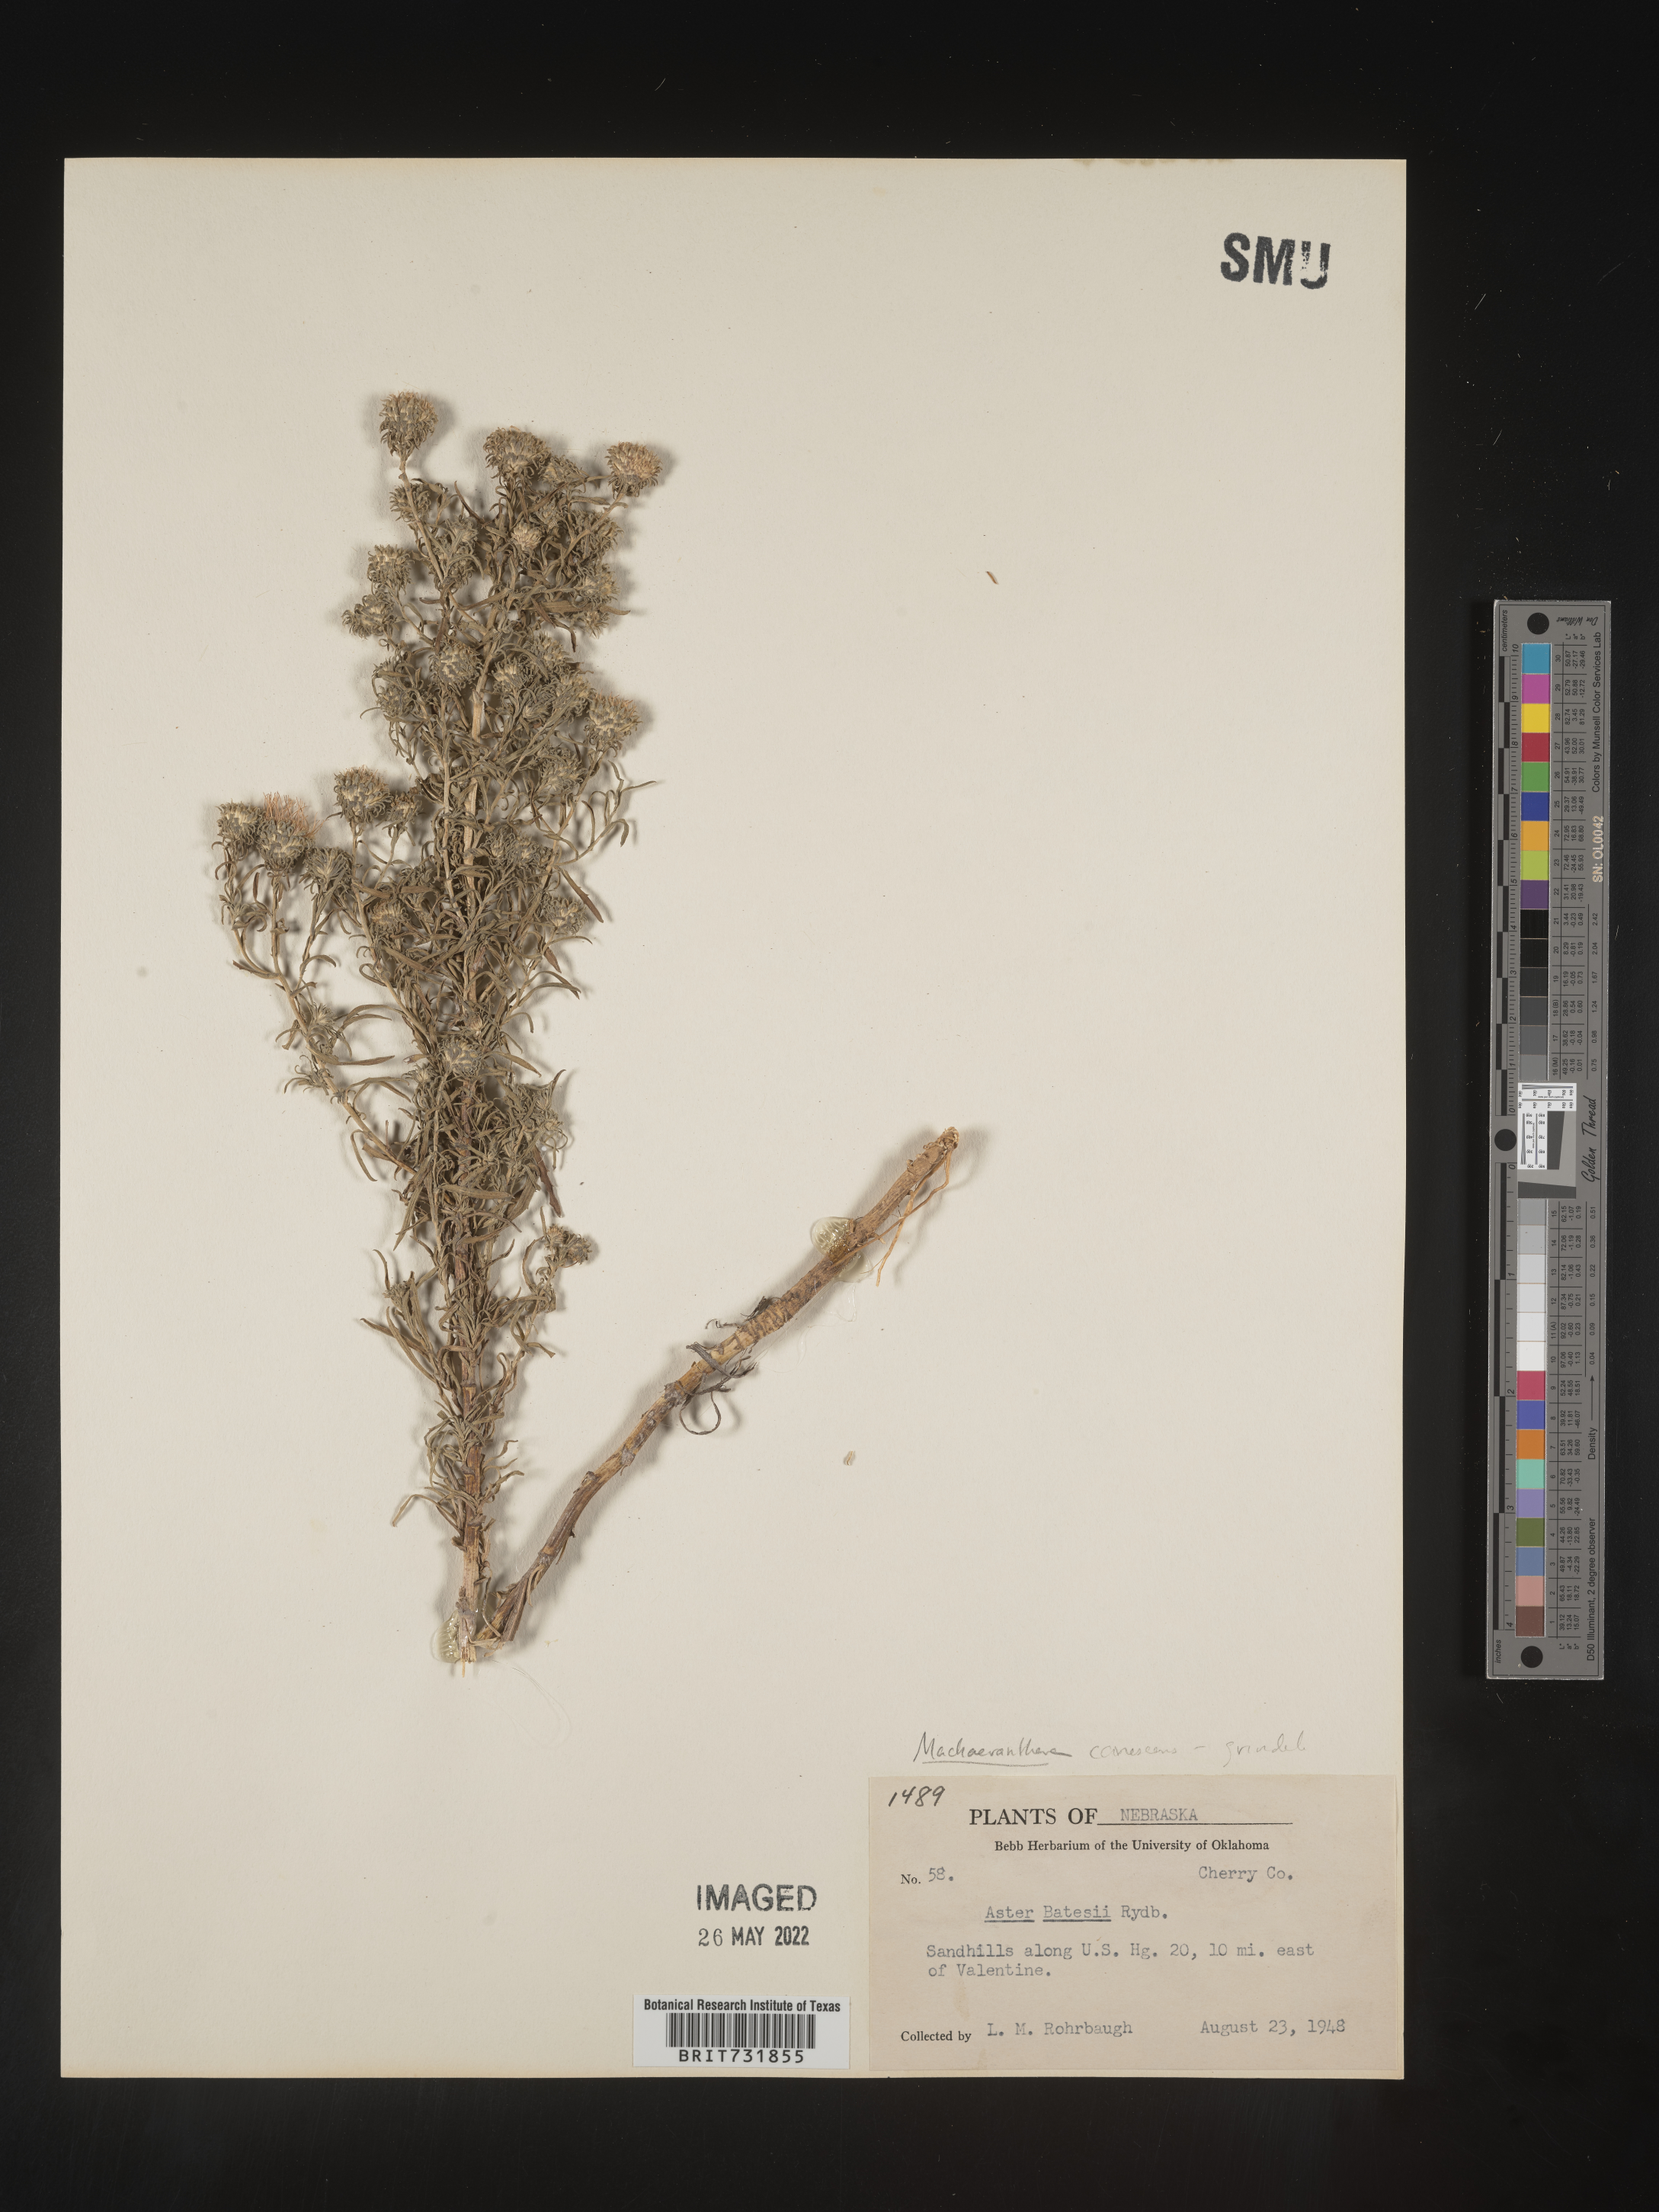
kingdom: Plantae
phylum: Tracheophyta
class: Magnoliopsida
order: Asterales
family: Asteraceae
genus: Dieteria
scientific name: Dieteria canescens
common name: Hoary-aster
